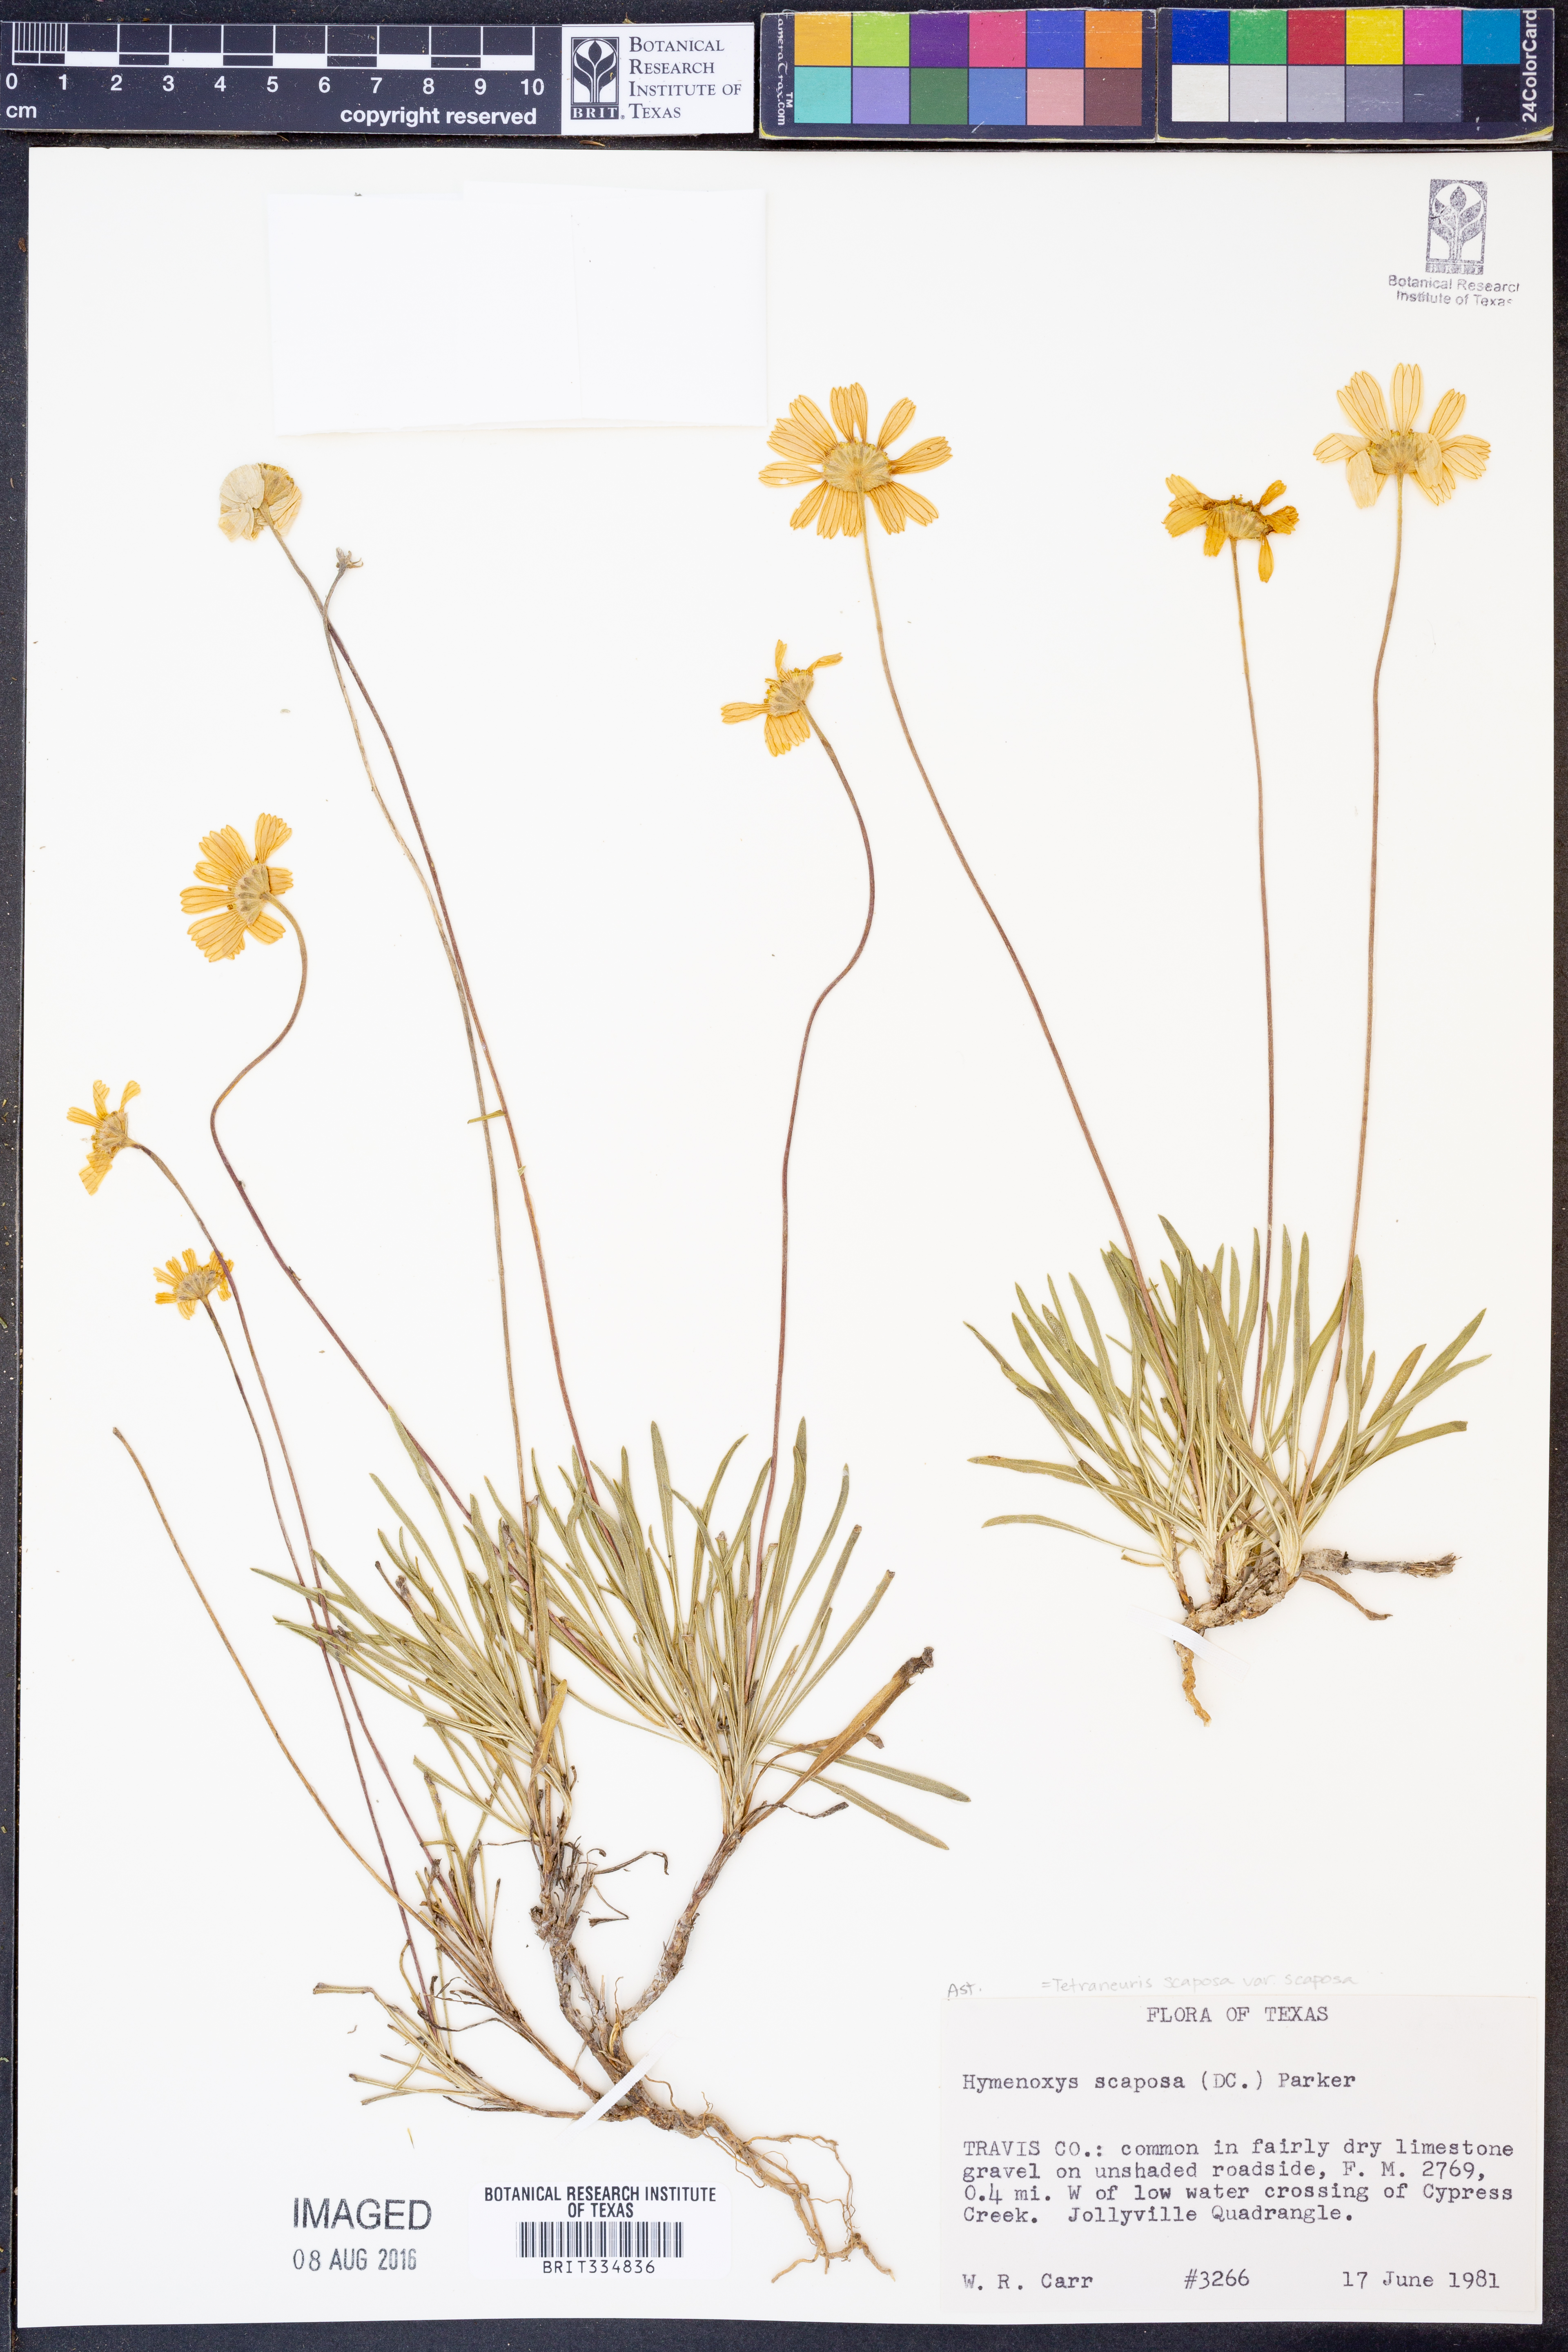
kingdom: Plantae
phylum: Tracheophyta
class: Magnoliopsida
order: Asterales
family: Asteraceae
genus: Tetraneuris
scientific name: Tetraneuris scaposa
